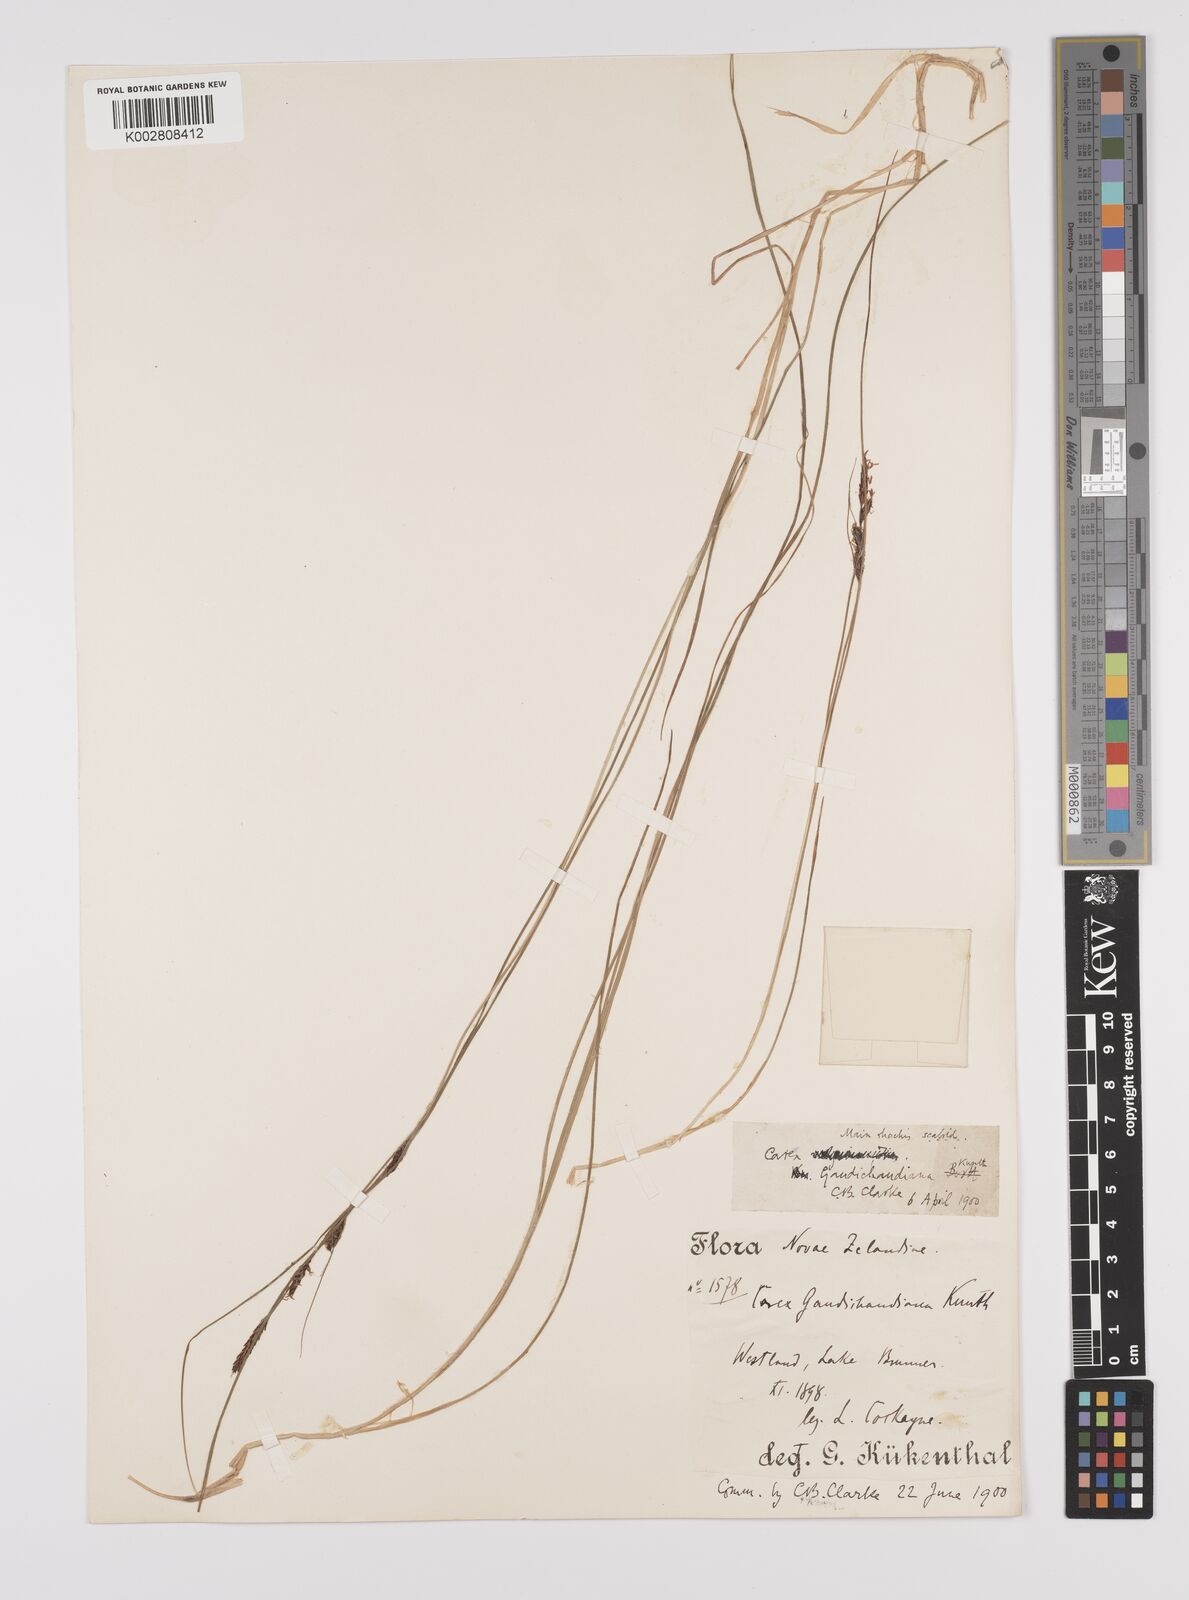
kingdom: Plantae
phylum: Tracheophyta
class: Liliopsida
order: Poales
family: Cyperaceae
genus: Carex
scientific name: Carex gaudichaudiana
